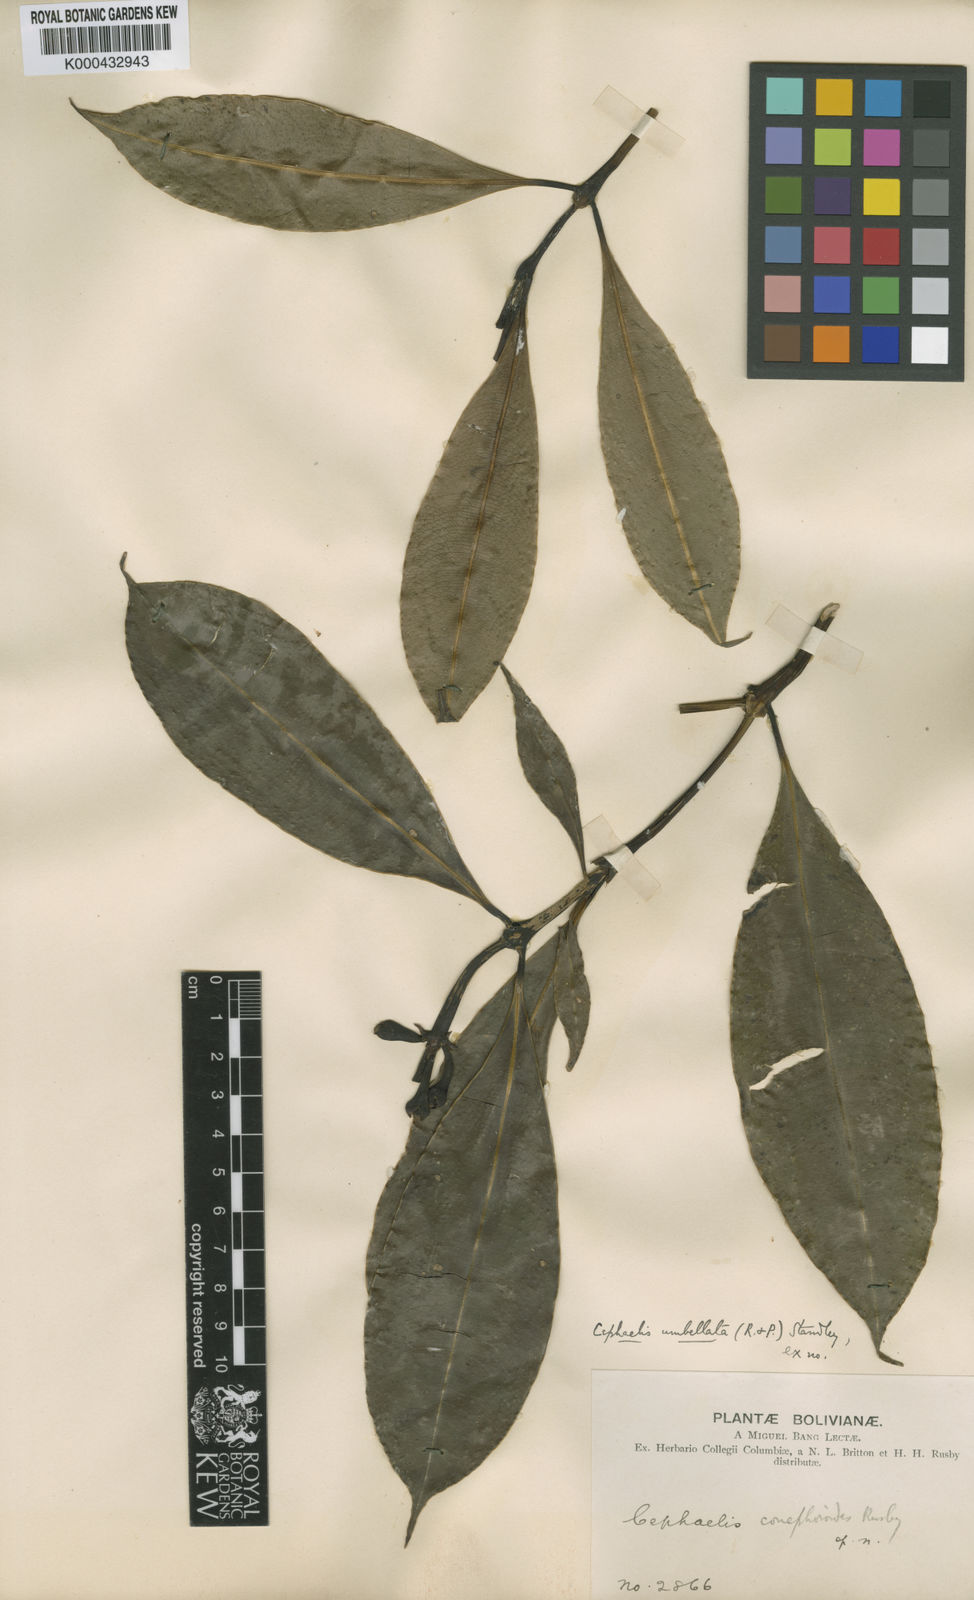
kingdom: Plantae
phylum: Tracheophyta
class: Magnoliopsida
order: Gentianales
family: Rubiaceae
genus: Psychotria
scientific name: Psychotria calva
